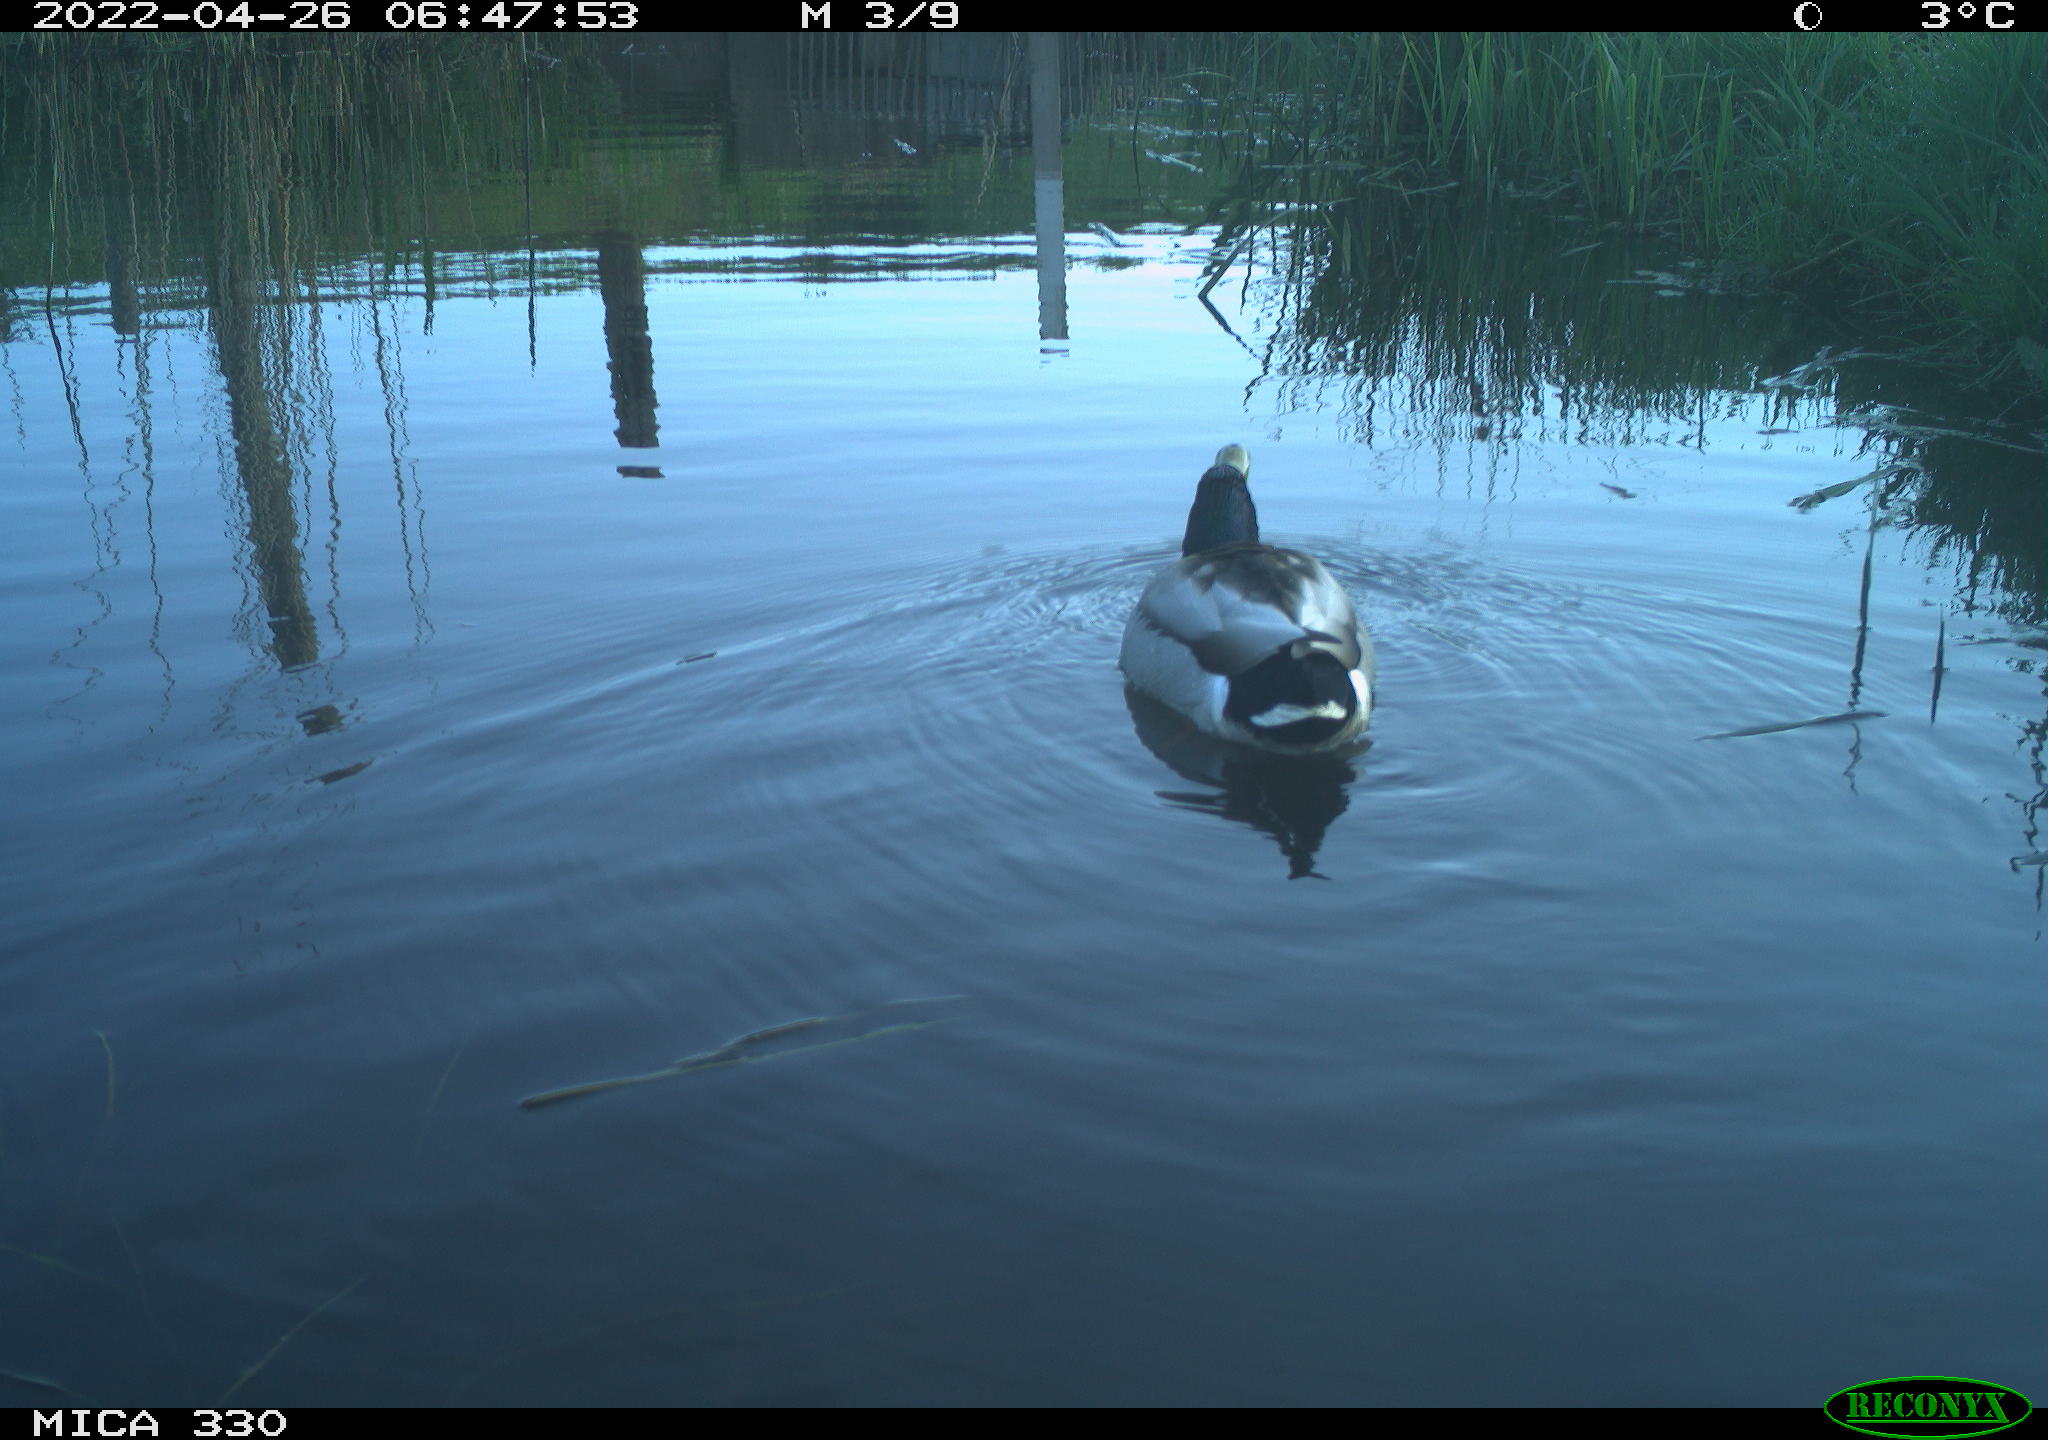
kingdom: Animalia
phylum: Chordata
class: Aves
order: Gruiformes
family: Rallidae
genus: Gallinula
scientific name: Gallinula chloropus
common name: Common moorhen
